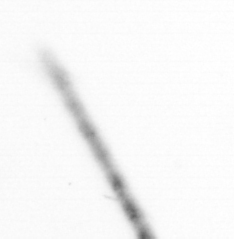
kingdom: Chromista
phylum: Ochrophyta
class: Bacillariophyceae
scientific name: Bacillariophyceae
